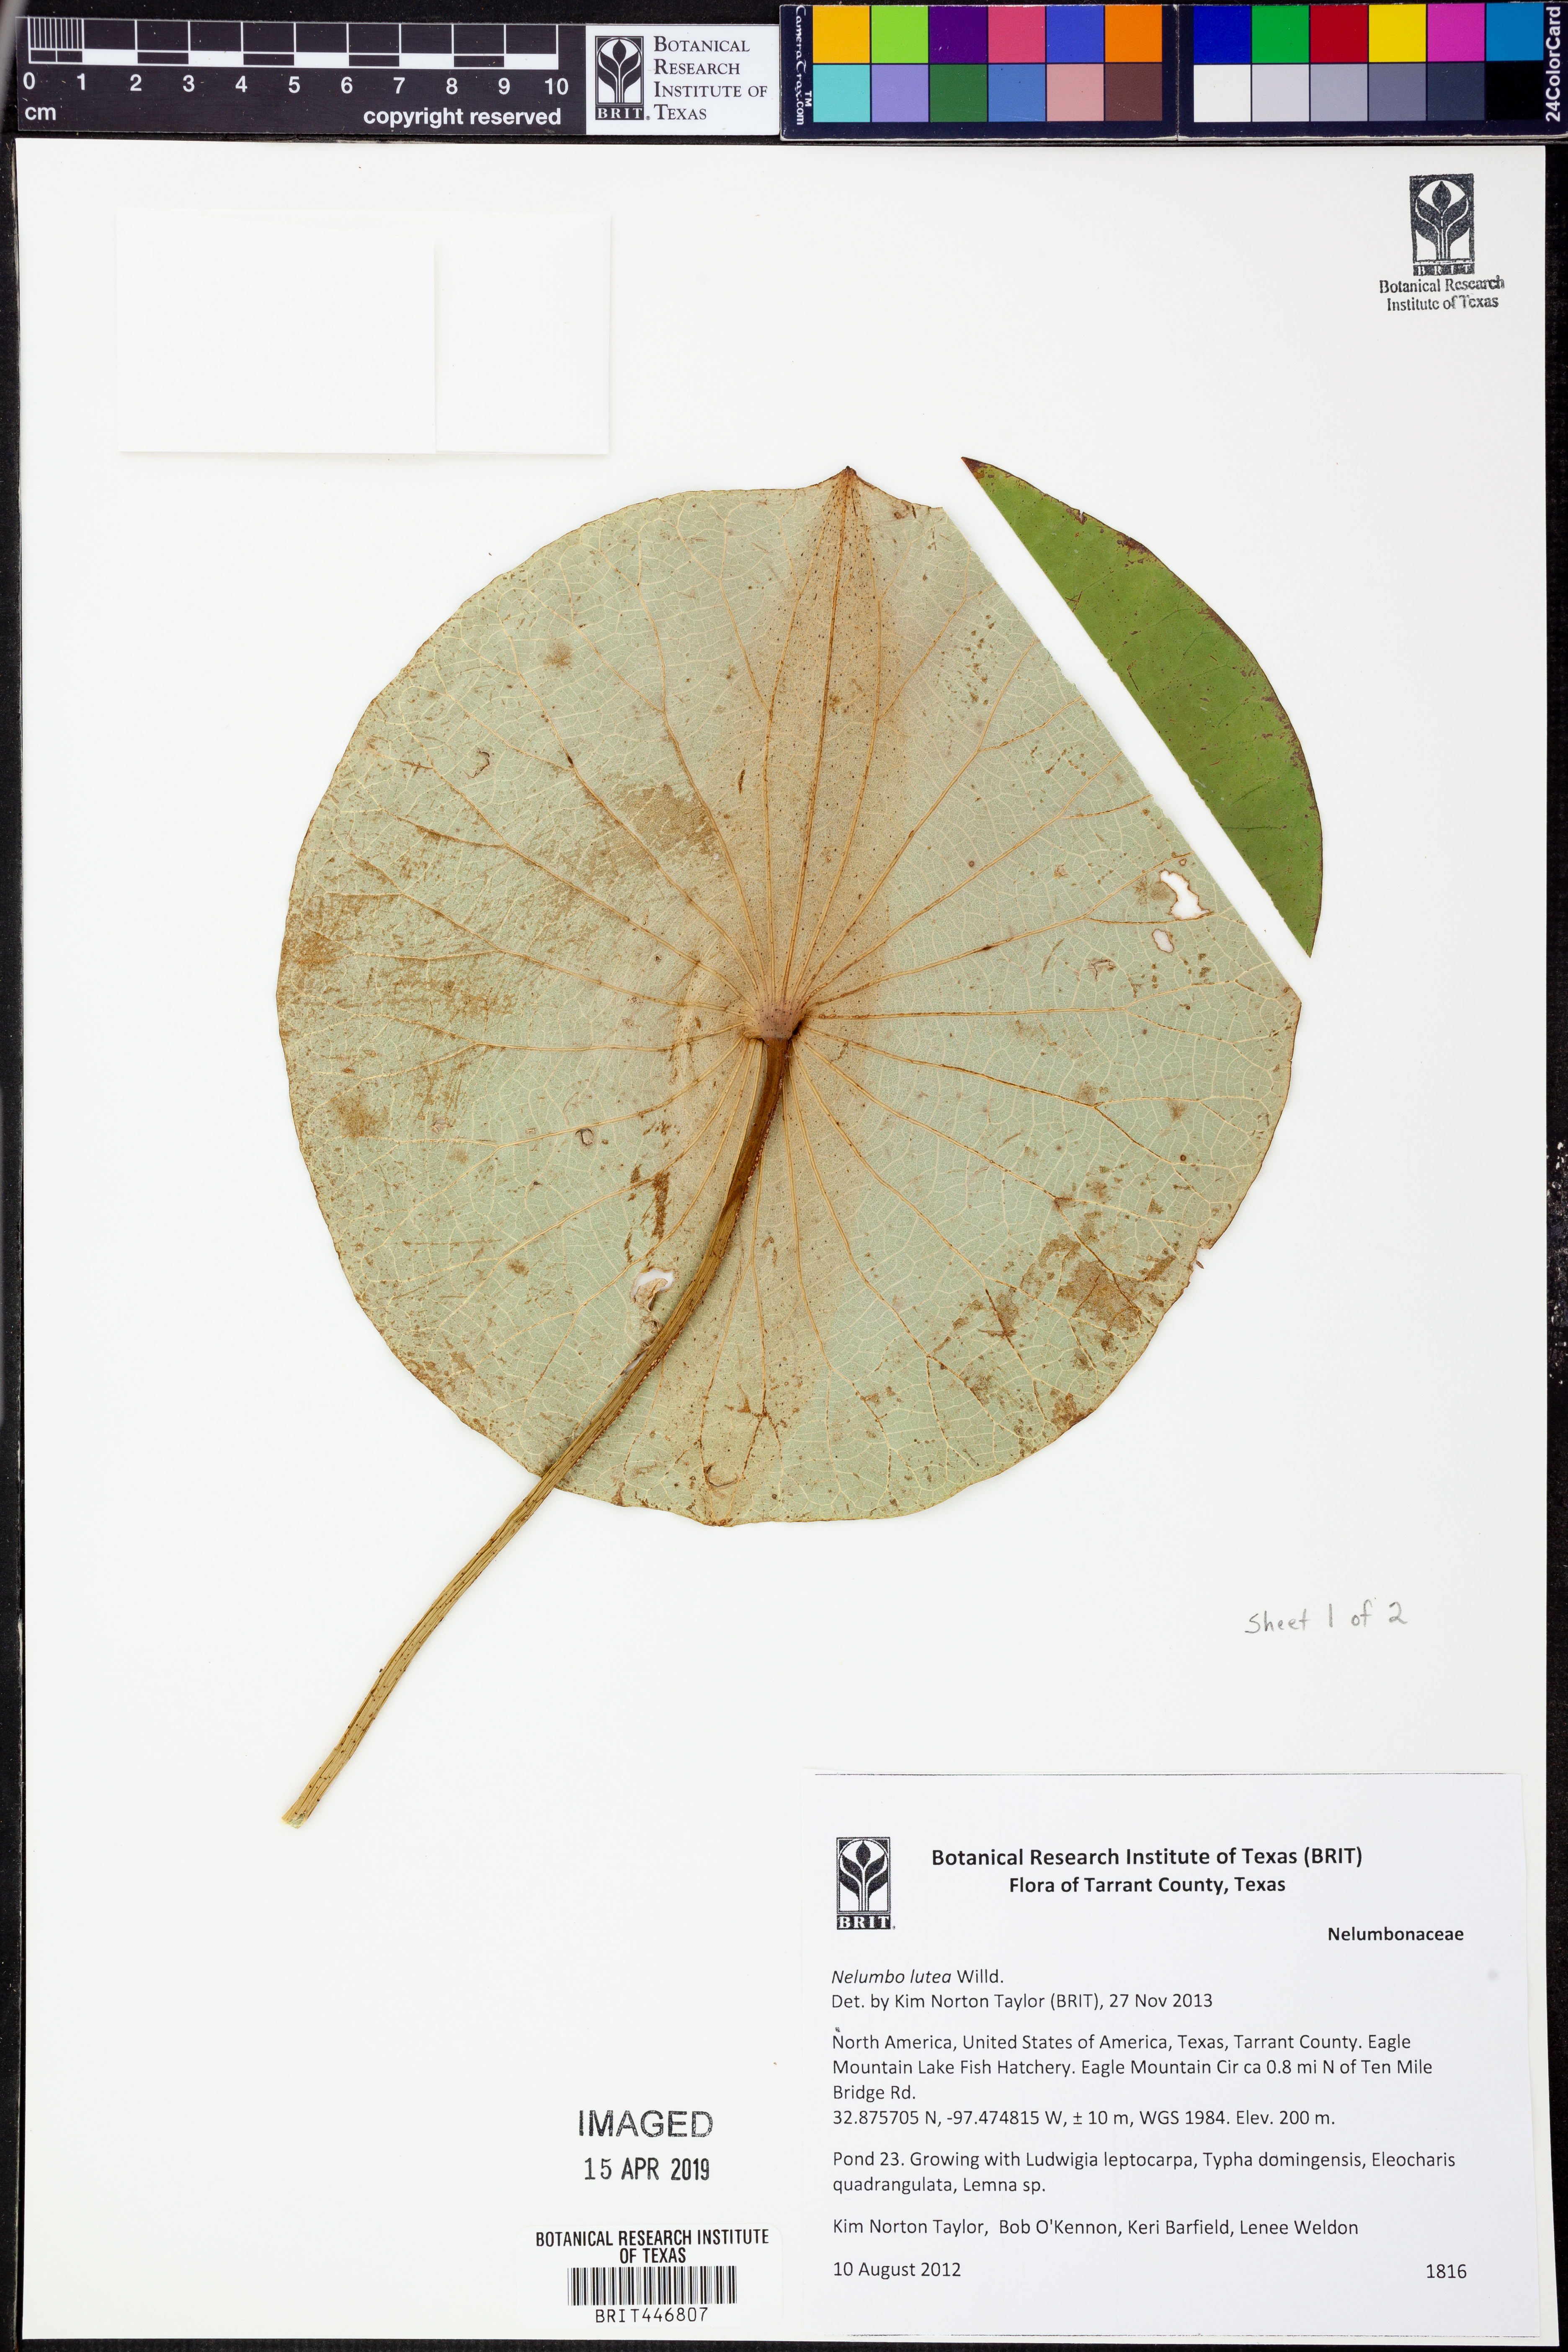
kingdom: Plantae
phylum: Tracheophyta
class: Magnoliopsida
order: Proteales
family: Nelumbonaceae
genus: Nelumbo
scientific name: Nelumbo lutea
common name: American lotus
